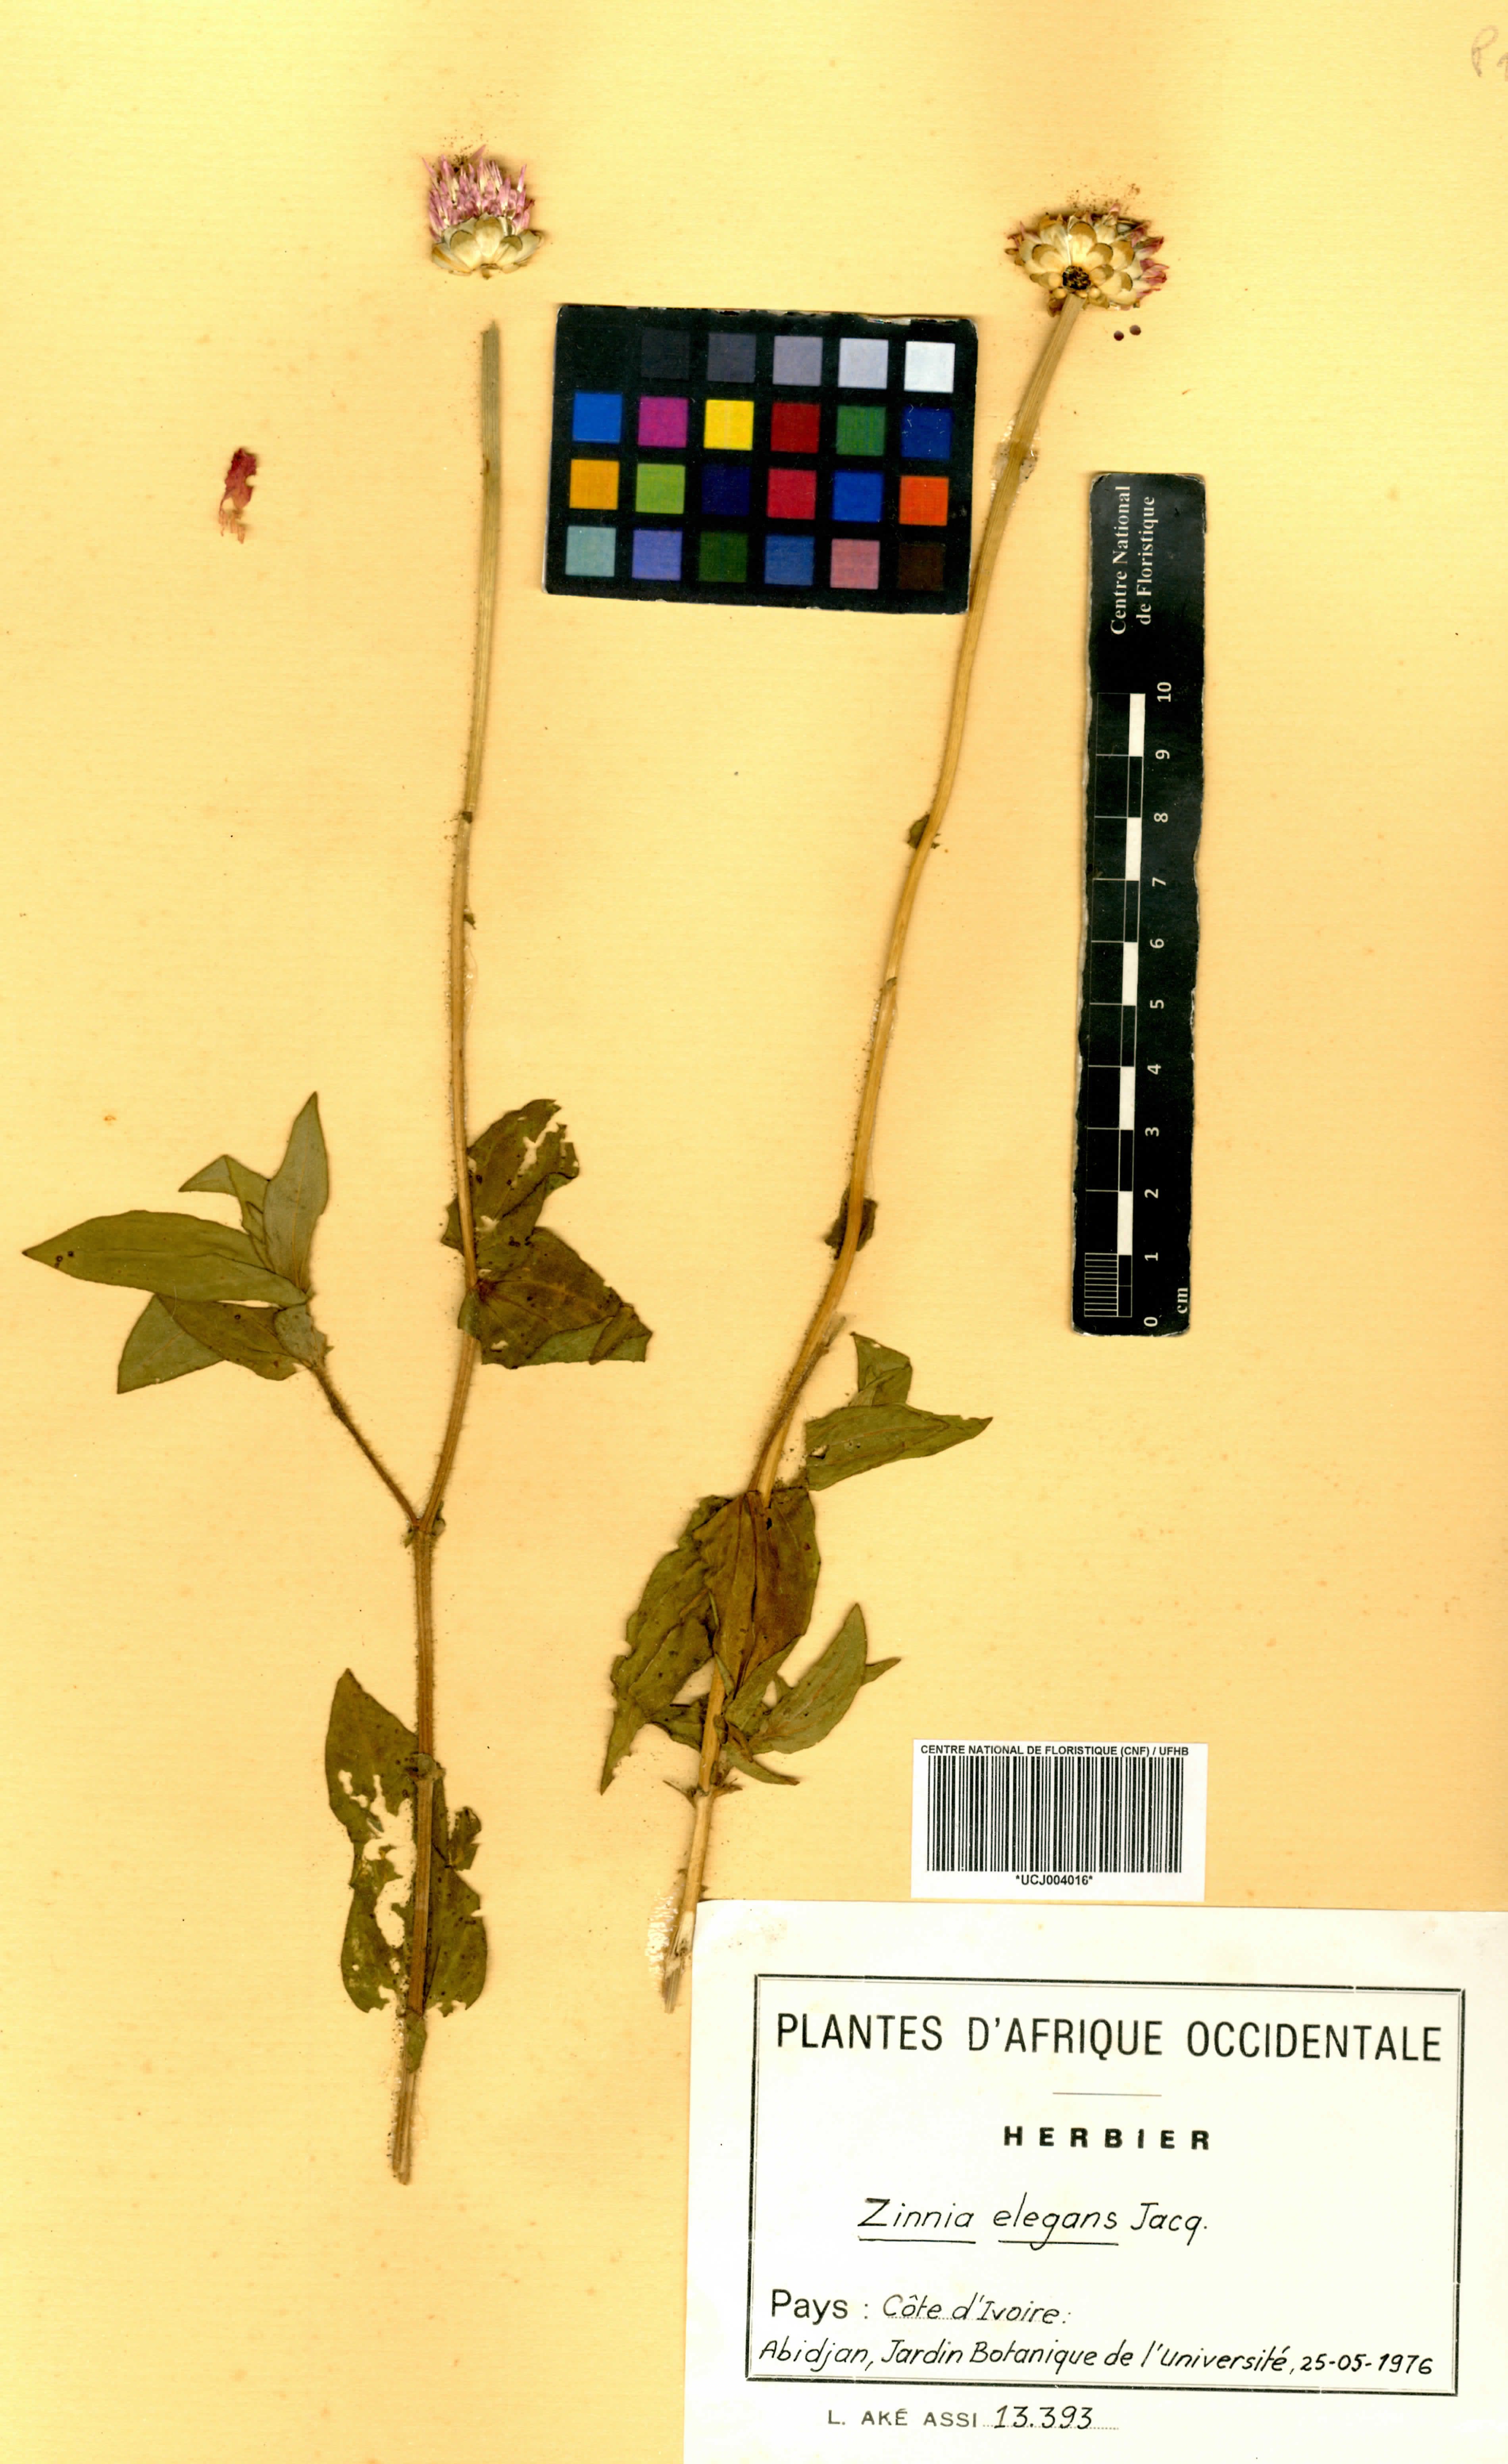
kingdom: Plantae
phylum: Tracheophyta
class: Magnoliopsida
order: Asterales
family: Asteraceae
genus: Zinnia
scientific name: Zinnia elegans
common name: Youth-and-age
